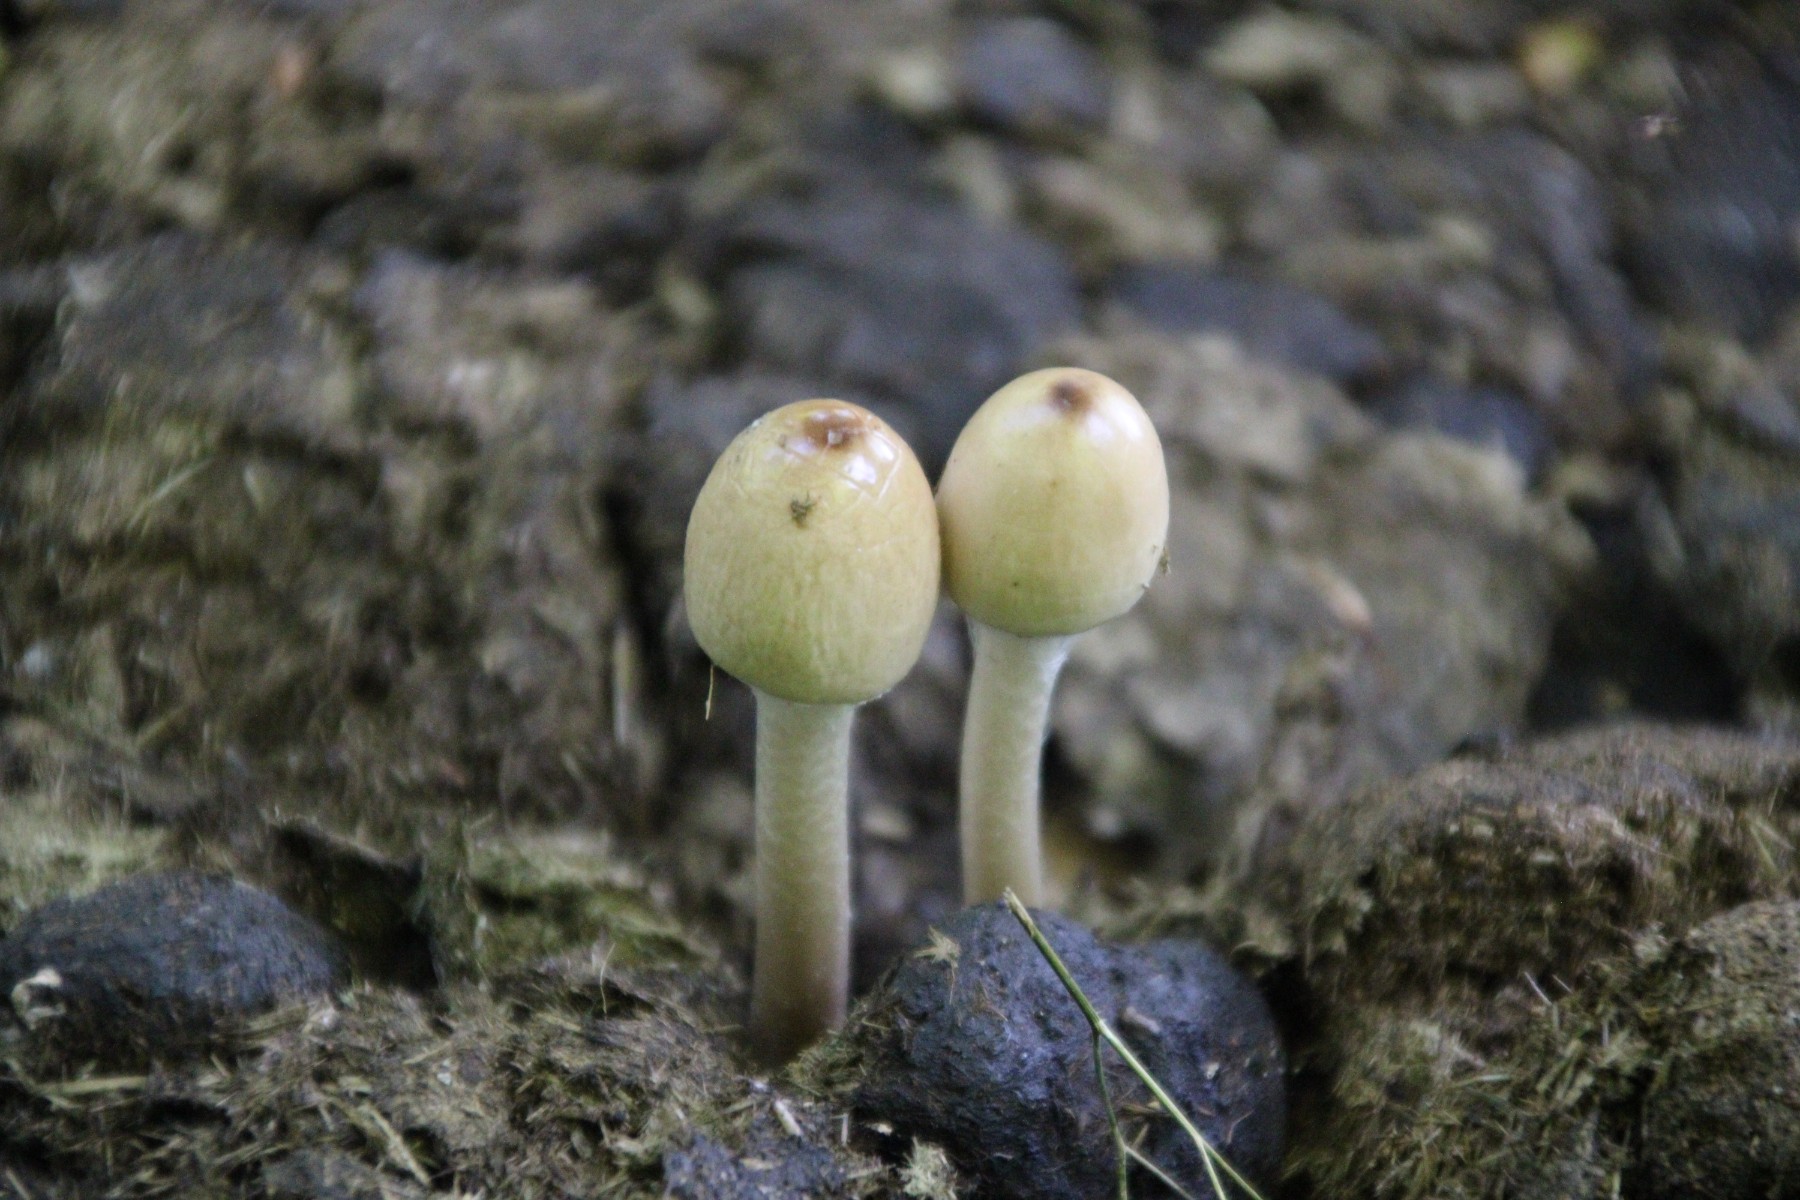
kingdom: Fungi
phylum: Basidiomycota
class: Agaricomycetes
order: Agaricales
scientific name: Agaricales
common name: champignonordenen
